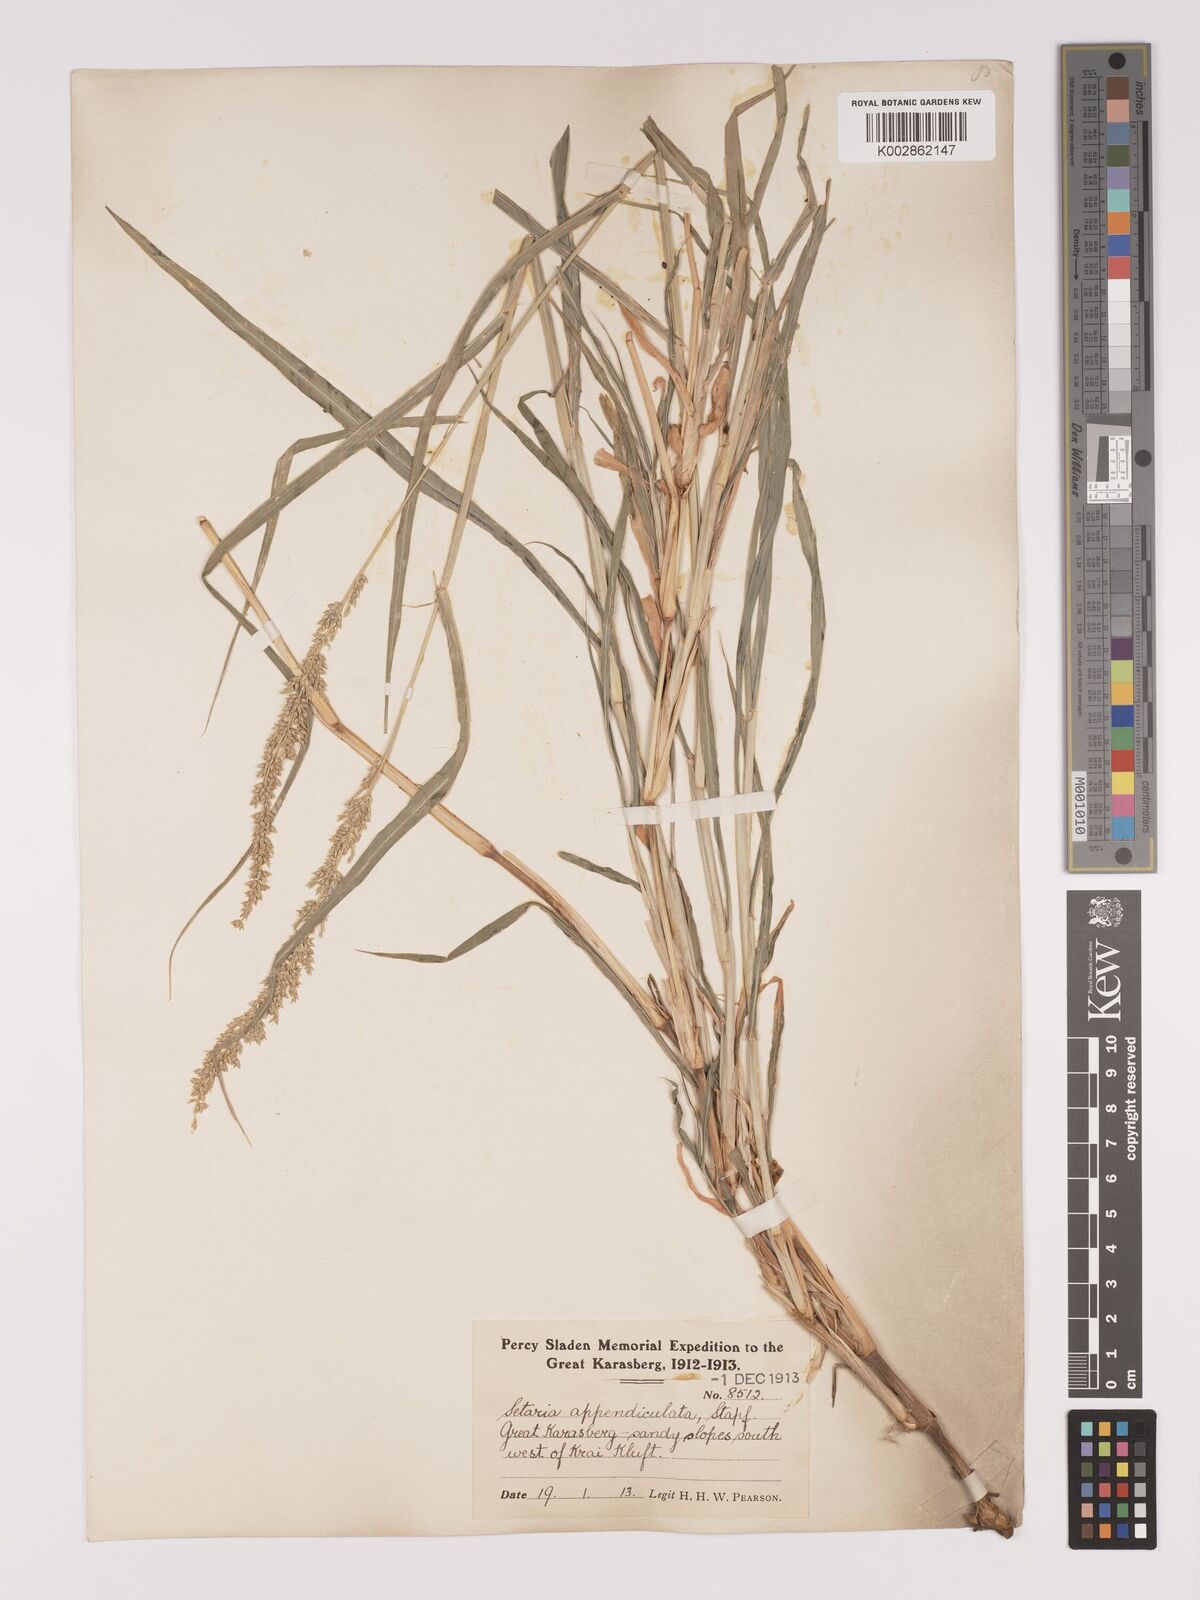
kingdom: Plantae
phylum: Tracheophyta
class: Liliopsida
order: Poales
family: Poaceae
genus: Setaria
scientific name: Setaria appendiculata
